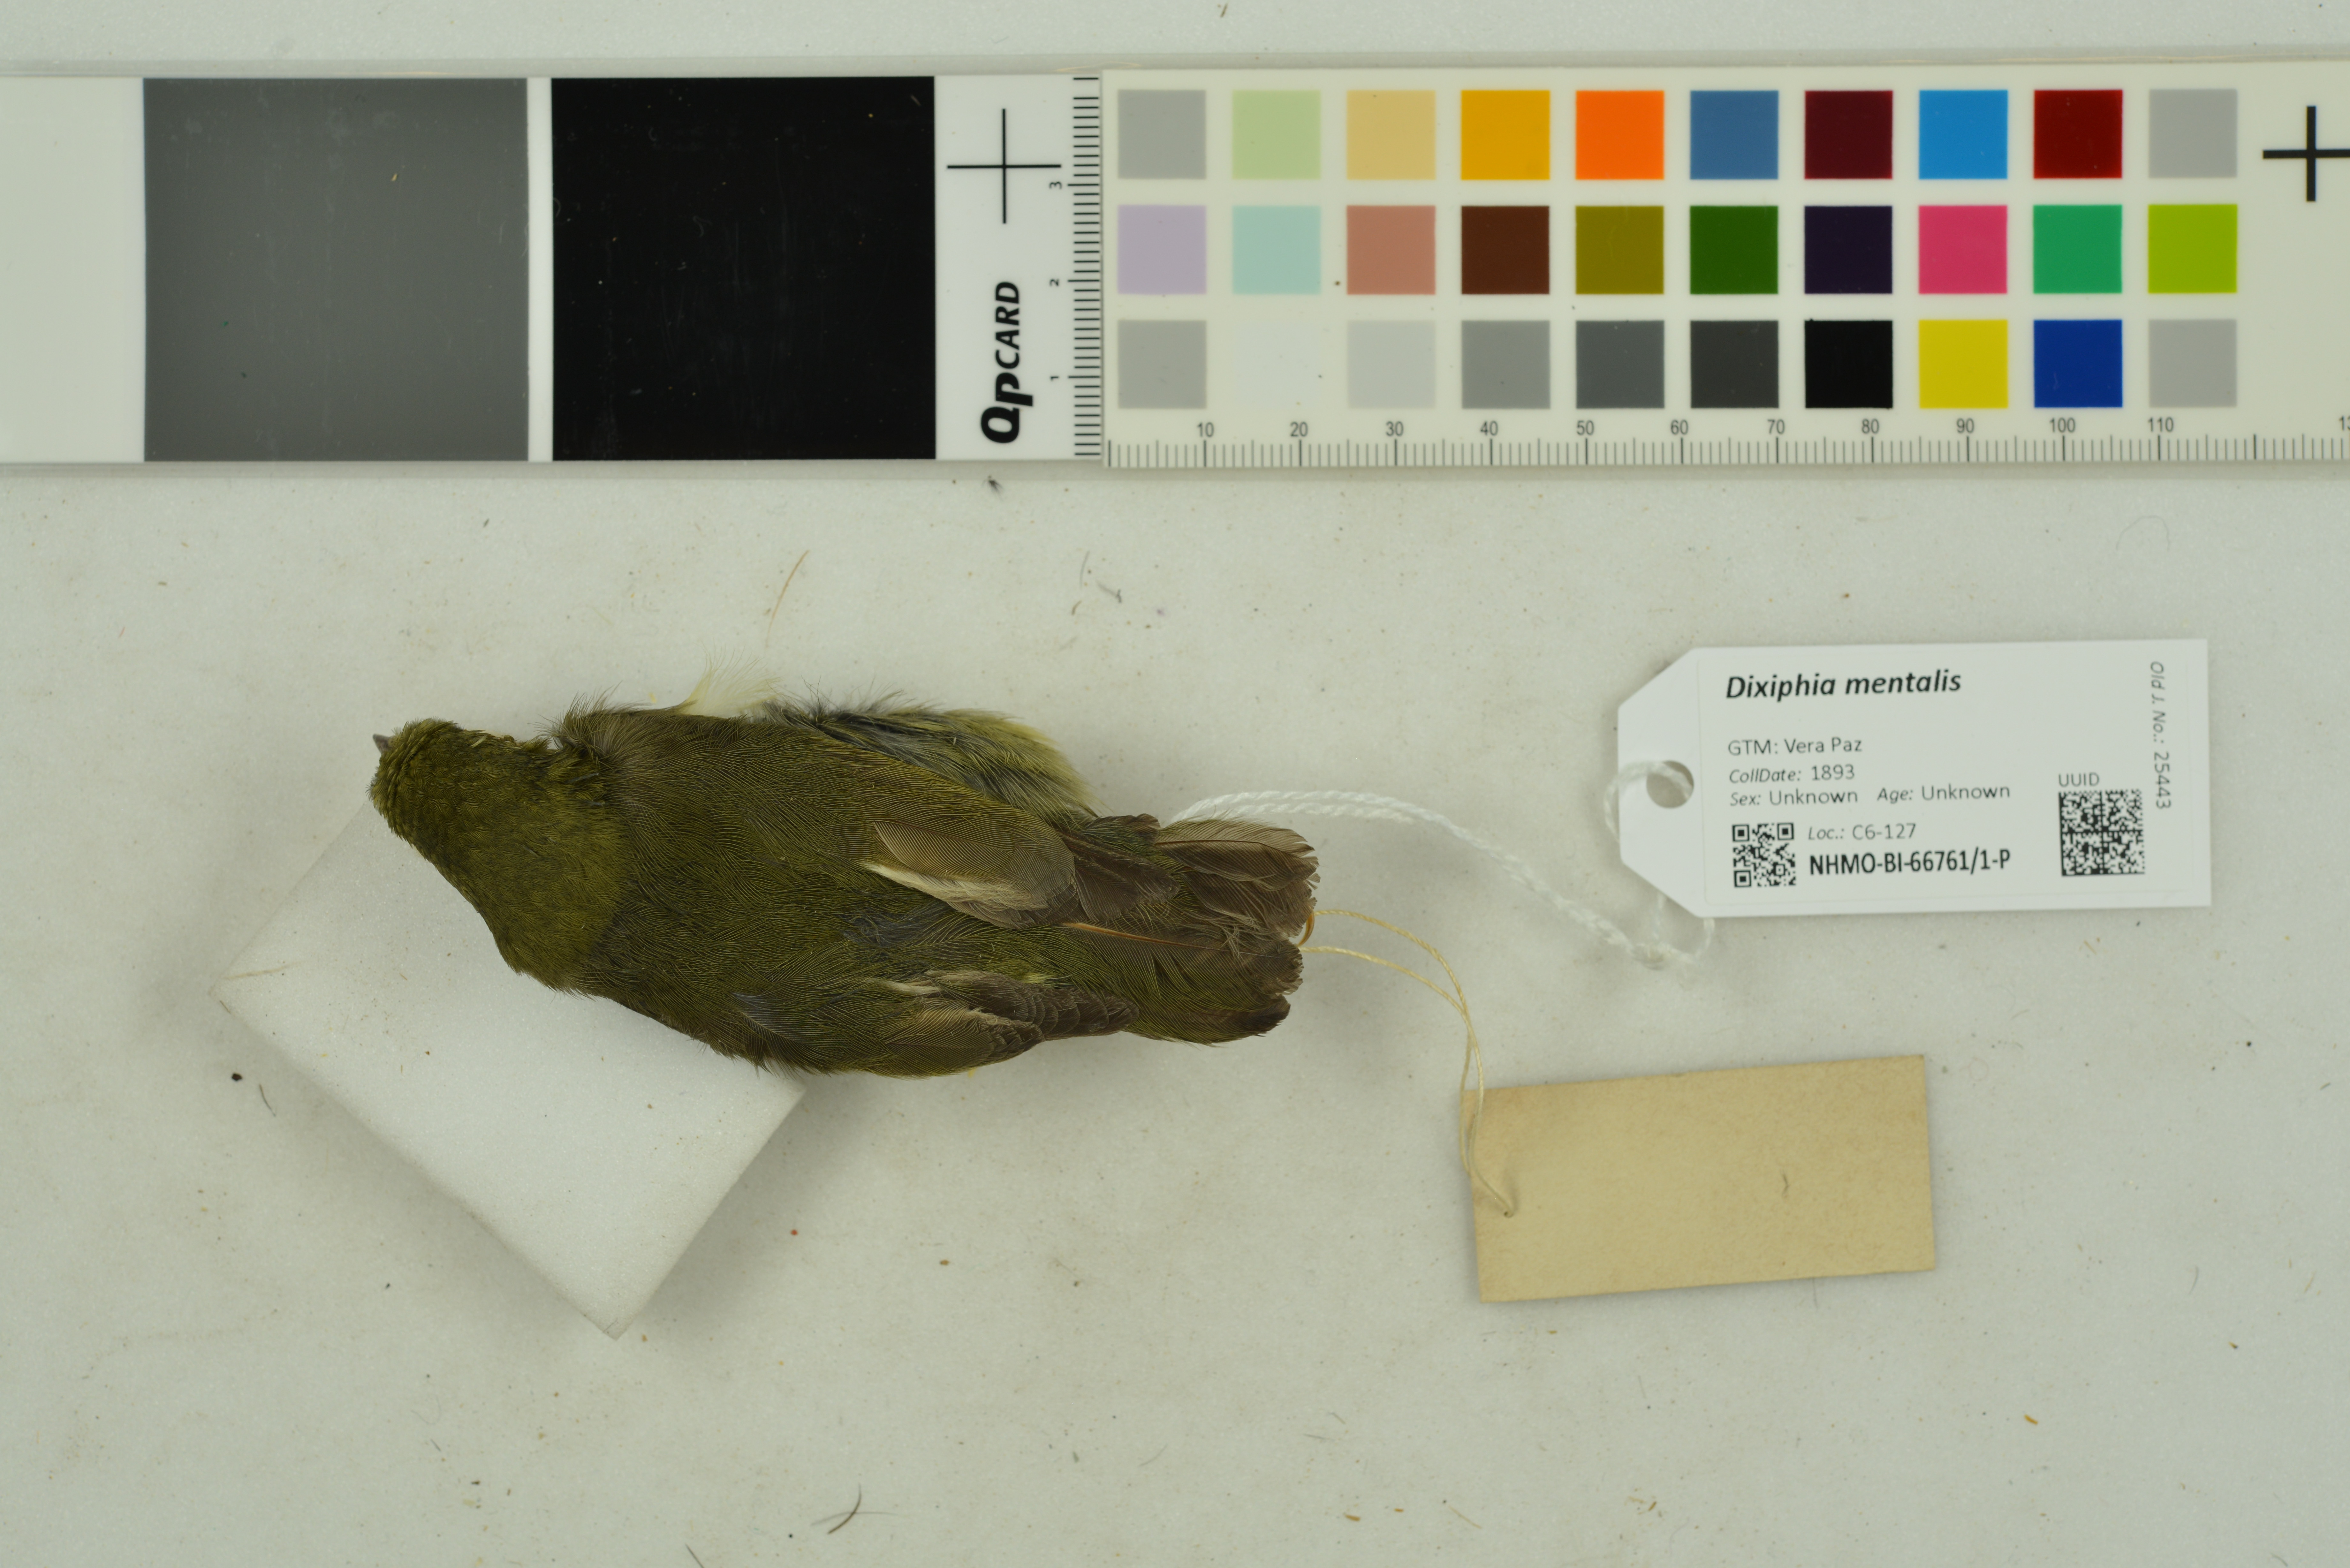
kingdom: Animalia
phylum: Chordata
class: Aves
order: Passeriformes
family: Pipridae
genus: Pipra
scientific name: Pipra mentalis
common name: Red-capped manakin
